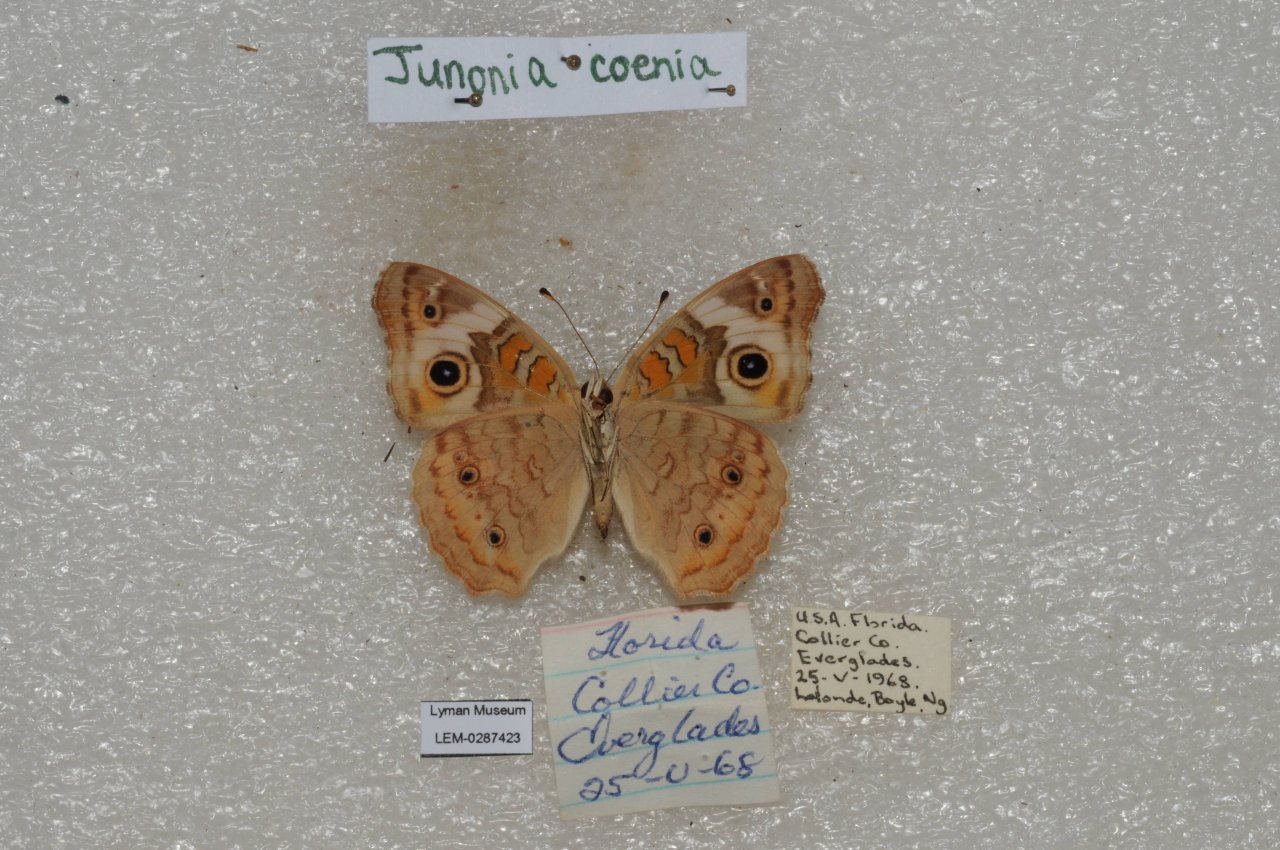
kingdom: Animalia
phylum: Arthropoda
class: Insecta
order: Lepidoptera
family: Nymphalidae
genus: Junonia
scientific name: Junonia coenia
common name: Common Buckeye
